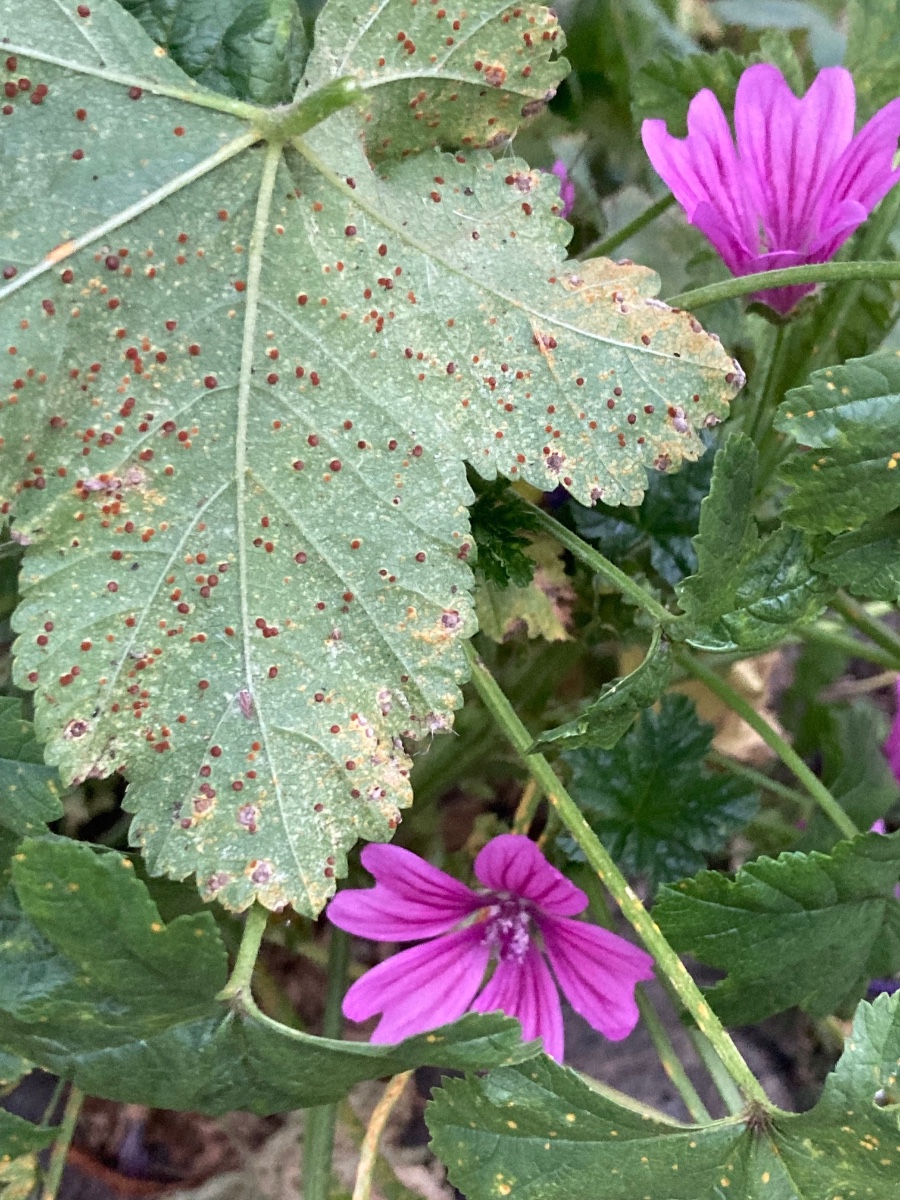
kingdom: Fungi
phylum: Basidiomycota
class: Pucciniomycetes
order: Pucciniales
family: Pucciniaceae
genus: Puccinia
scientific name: Puccinia malvacearum
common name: stokrose-tvecellerust
